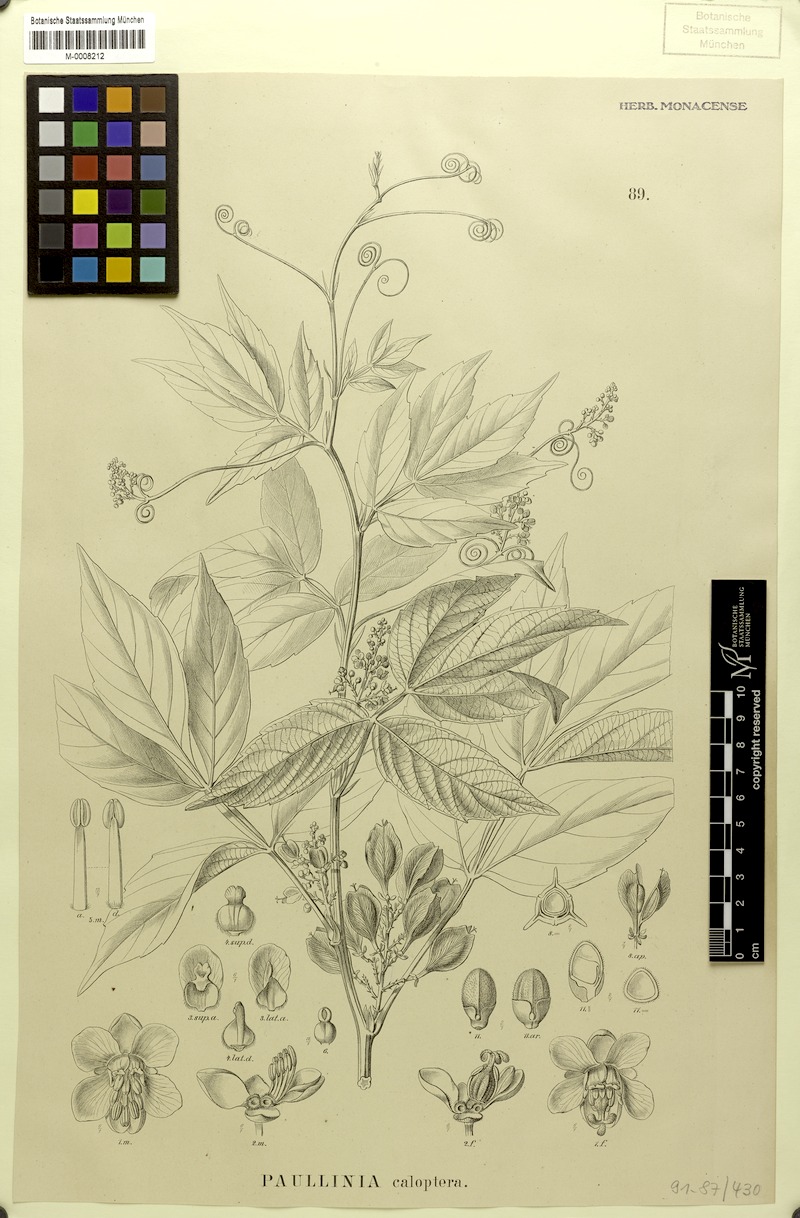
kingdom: Plantae
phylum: Tracheophyta
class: Magnoliopsida
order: Sapindales
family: Sapindaceae
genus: Paullinia
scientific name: Paullinia caloptera
